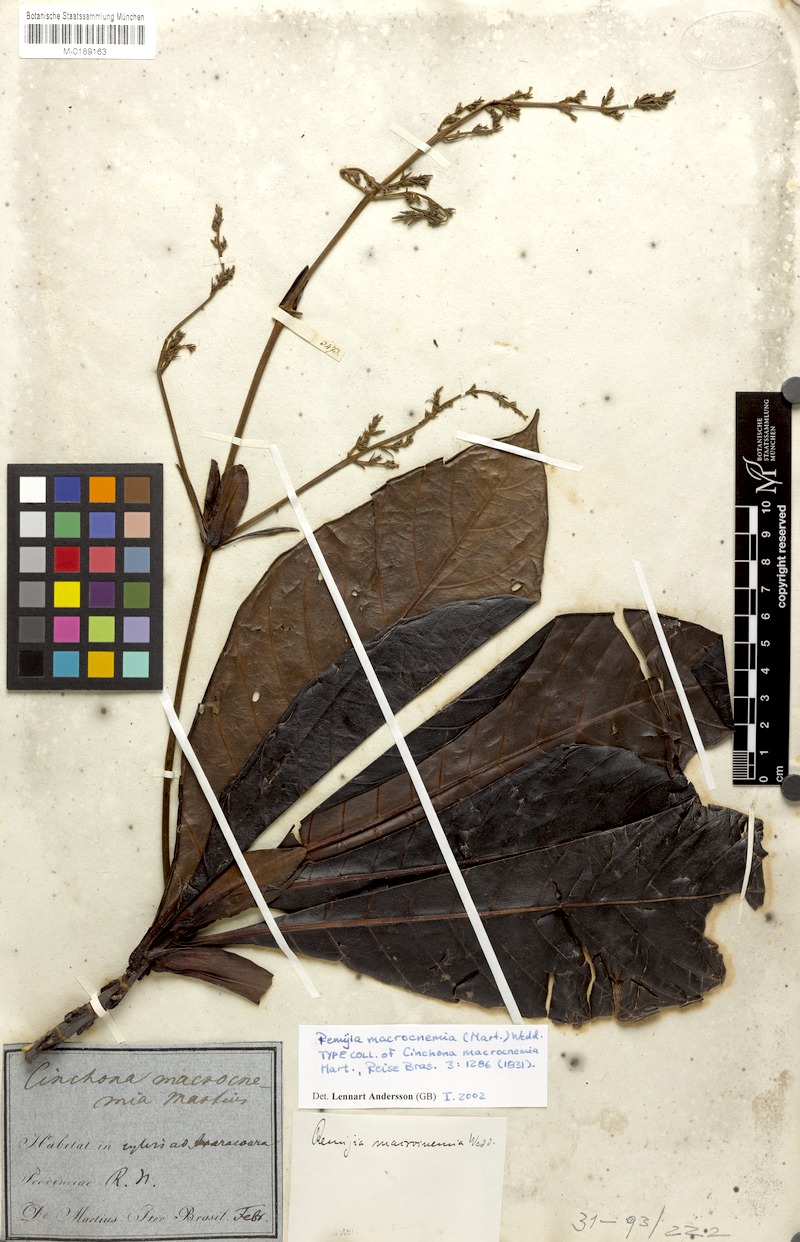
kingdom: Plantae
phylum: Tracheophyta
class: Magnoliopsida
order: Gentianales
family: Rubiaceae
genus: Remijia
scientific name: Remijia macrocnemia
